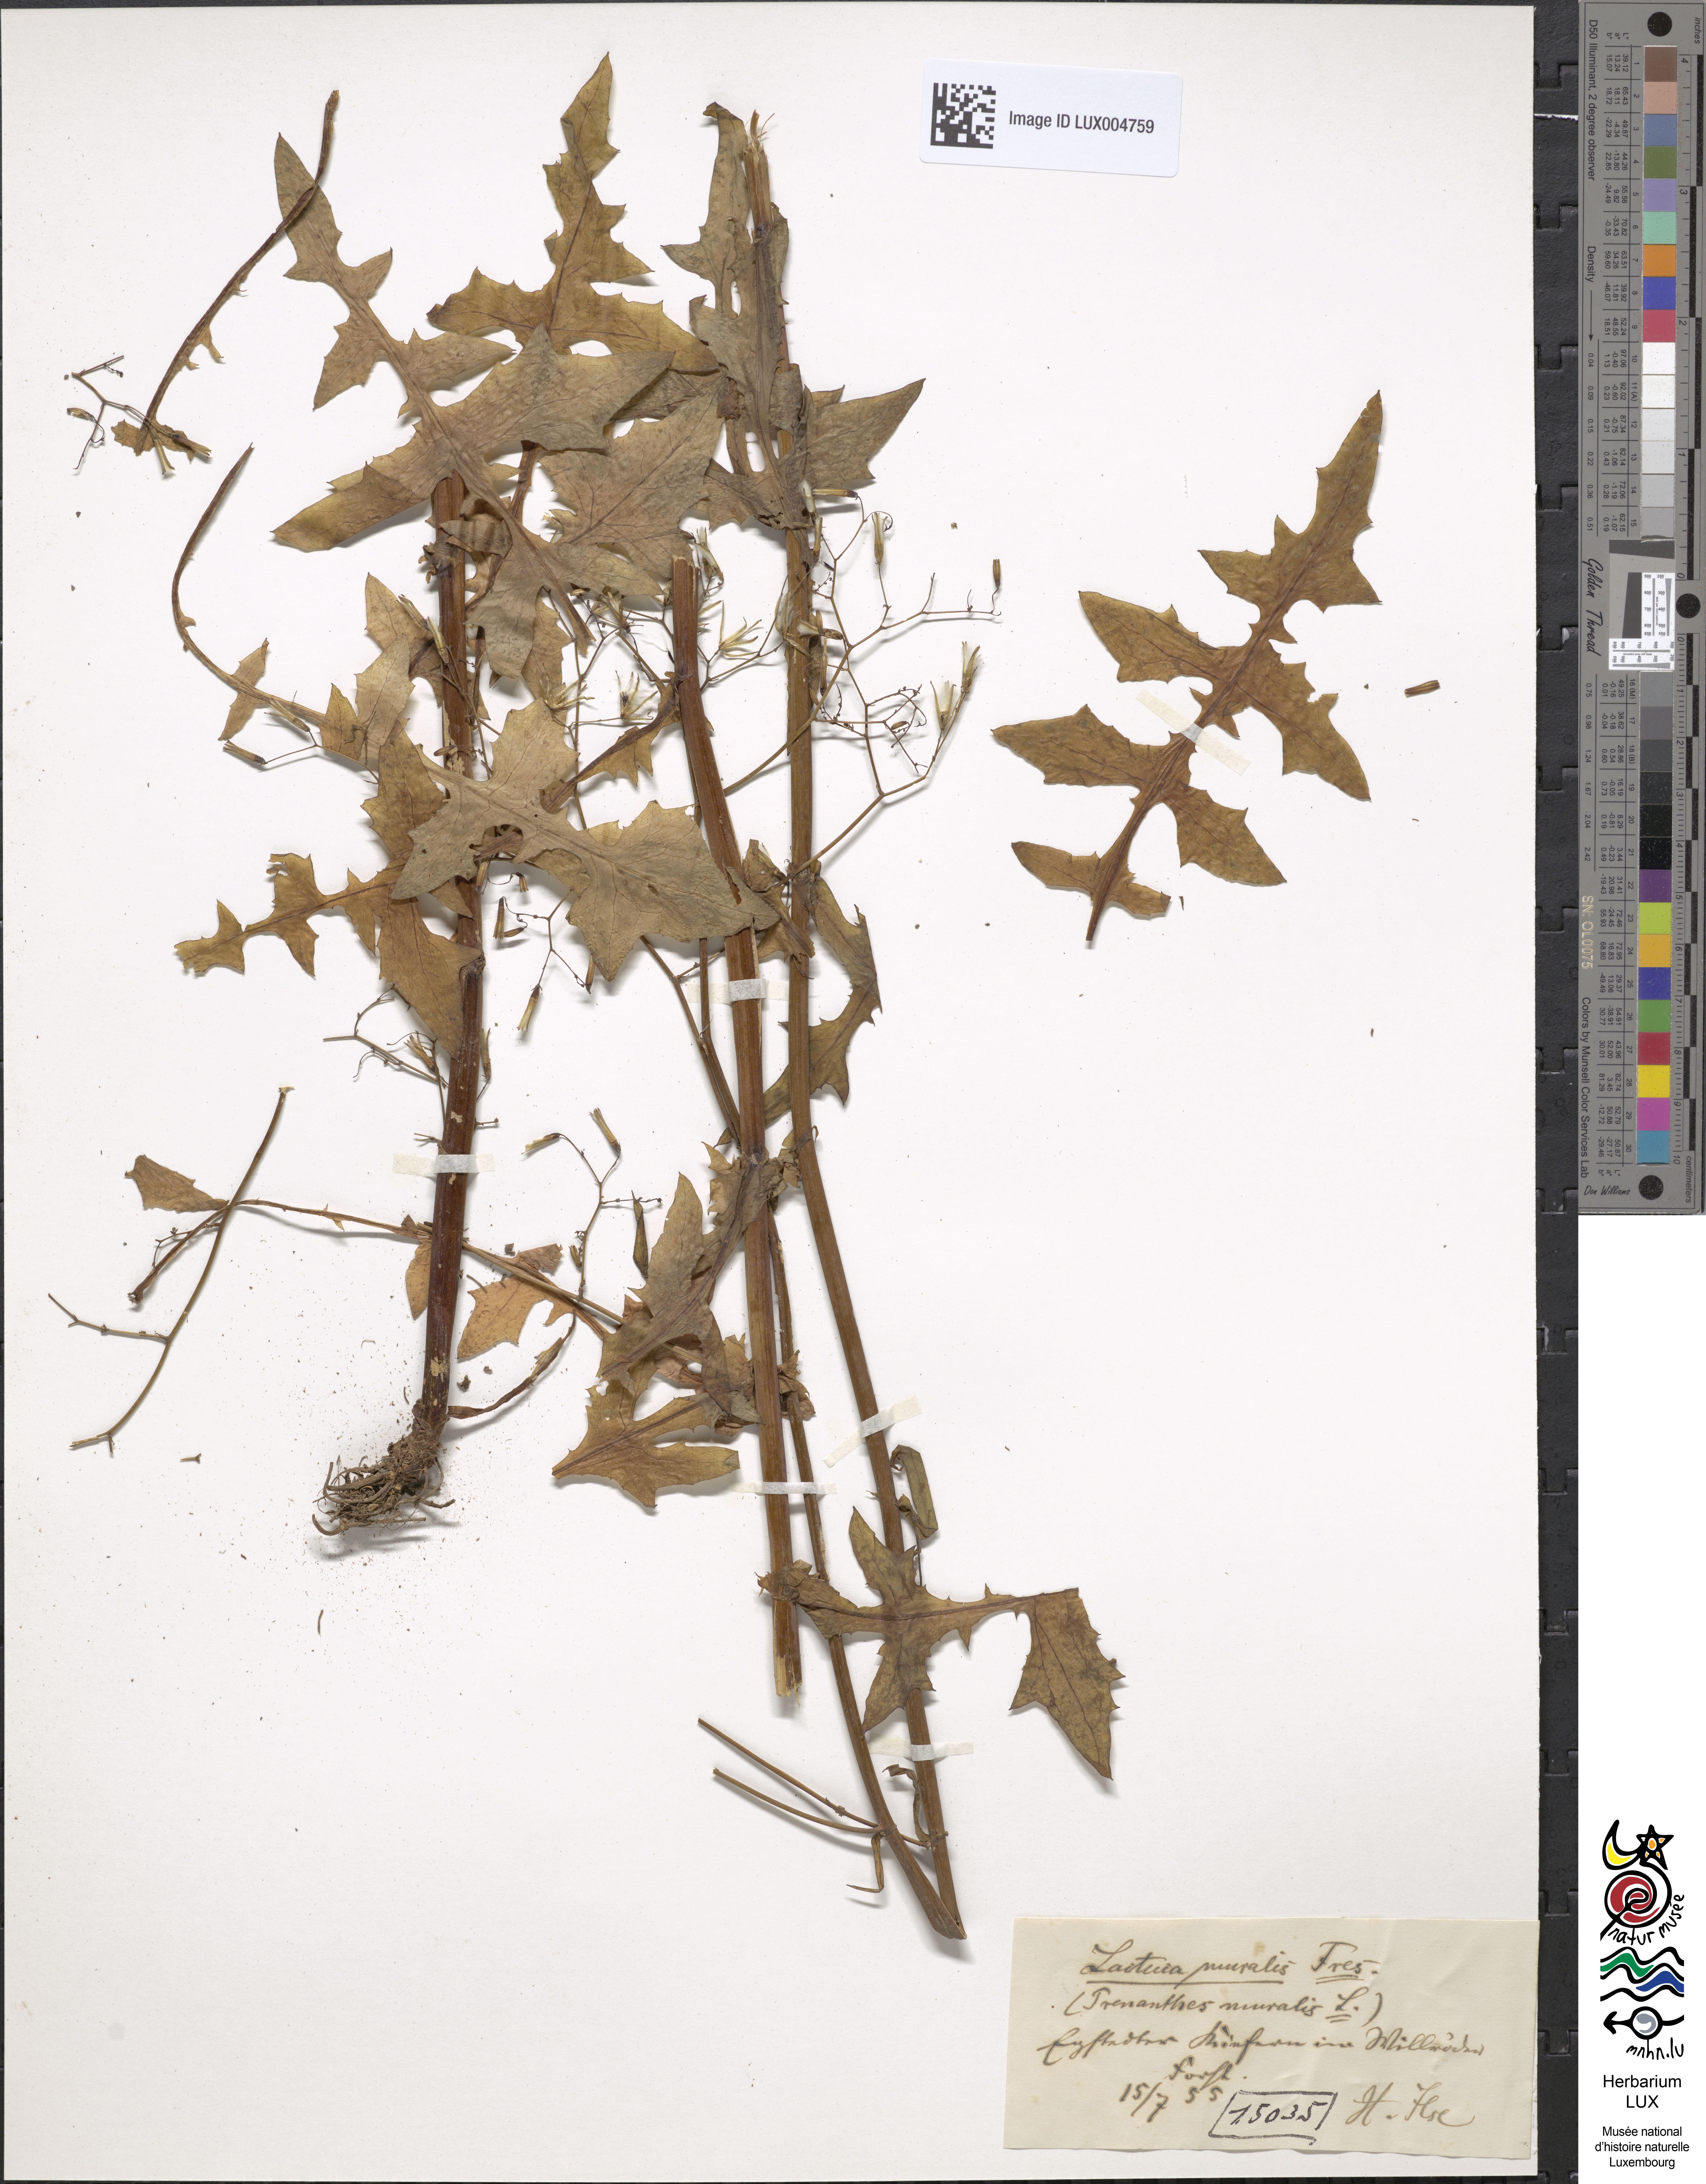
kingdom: Plantae
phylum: Tracheophyta
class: Magnoliopsida
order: Asterales
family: Asteraceae
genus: Mycelis
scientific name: Mycelis muralis
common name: Wall lettuce
